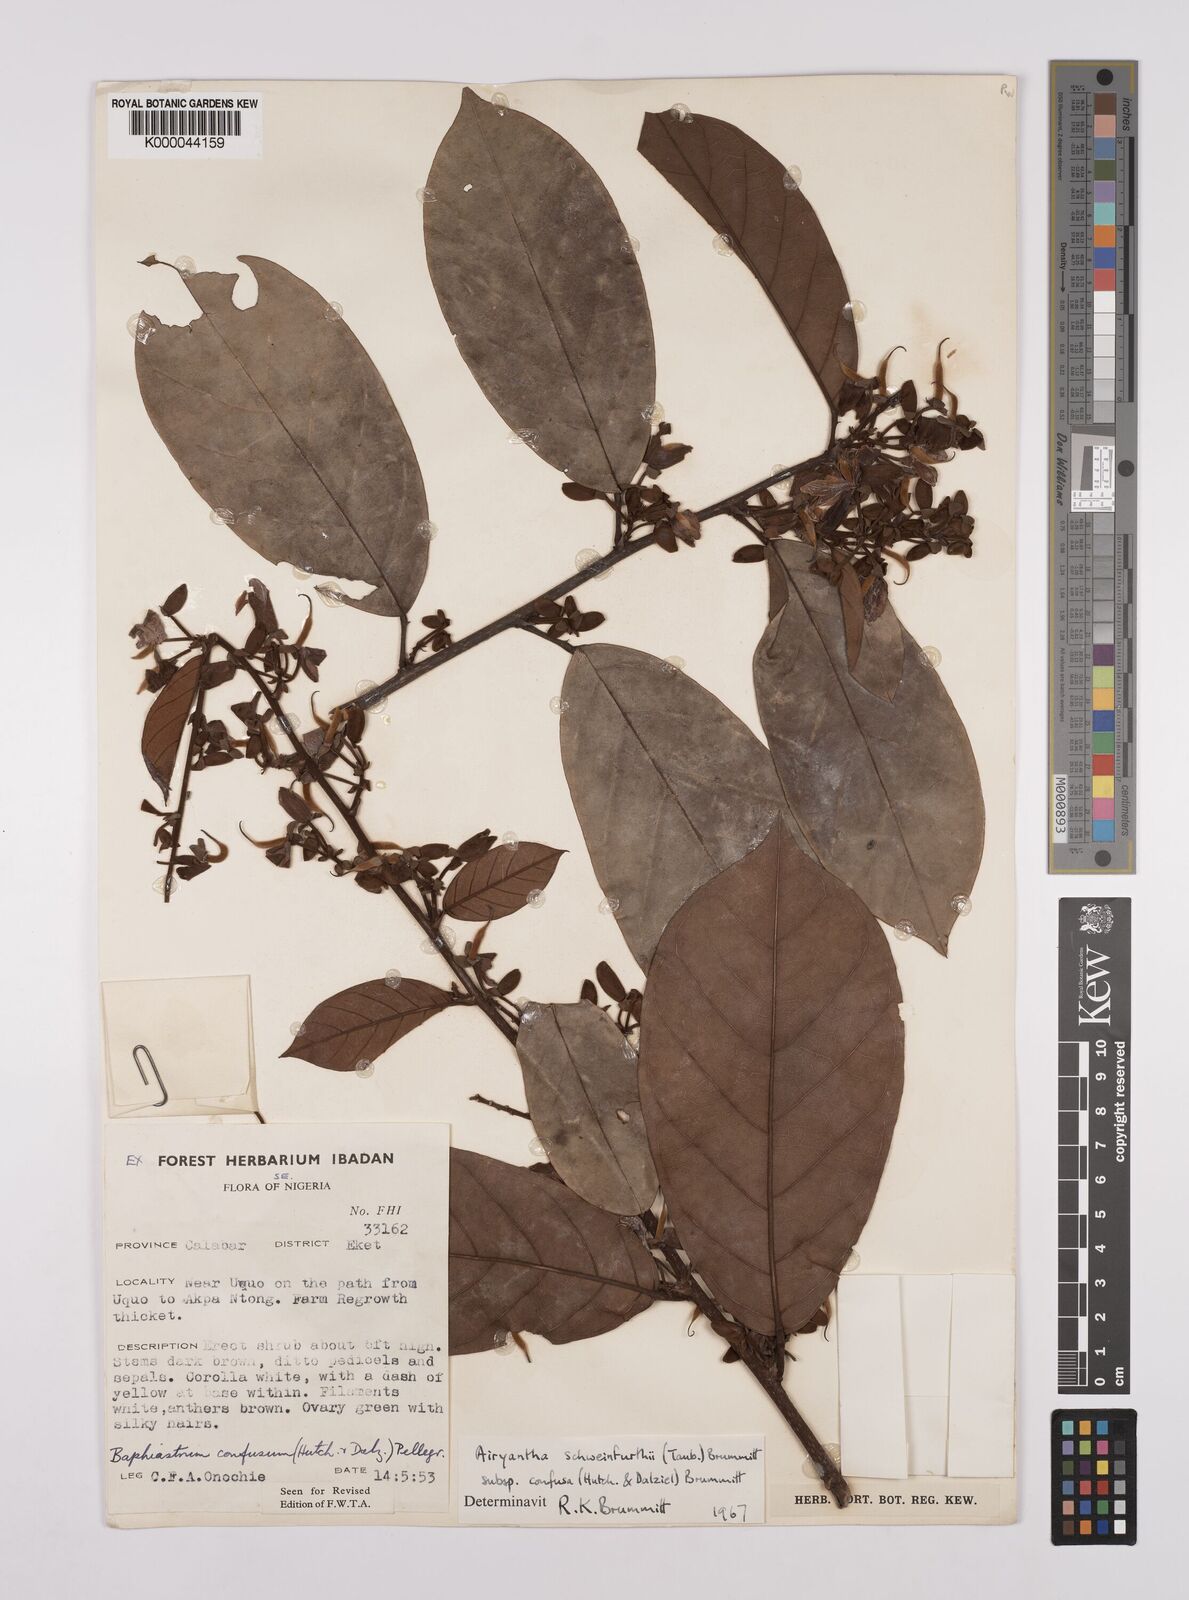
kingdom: Plantae
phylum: Tracheophyta
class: Magnoliopsida
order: Fabales
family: Fabaceae
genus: Airyantha
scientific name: Airyantha schweinfurthii
